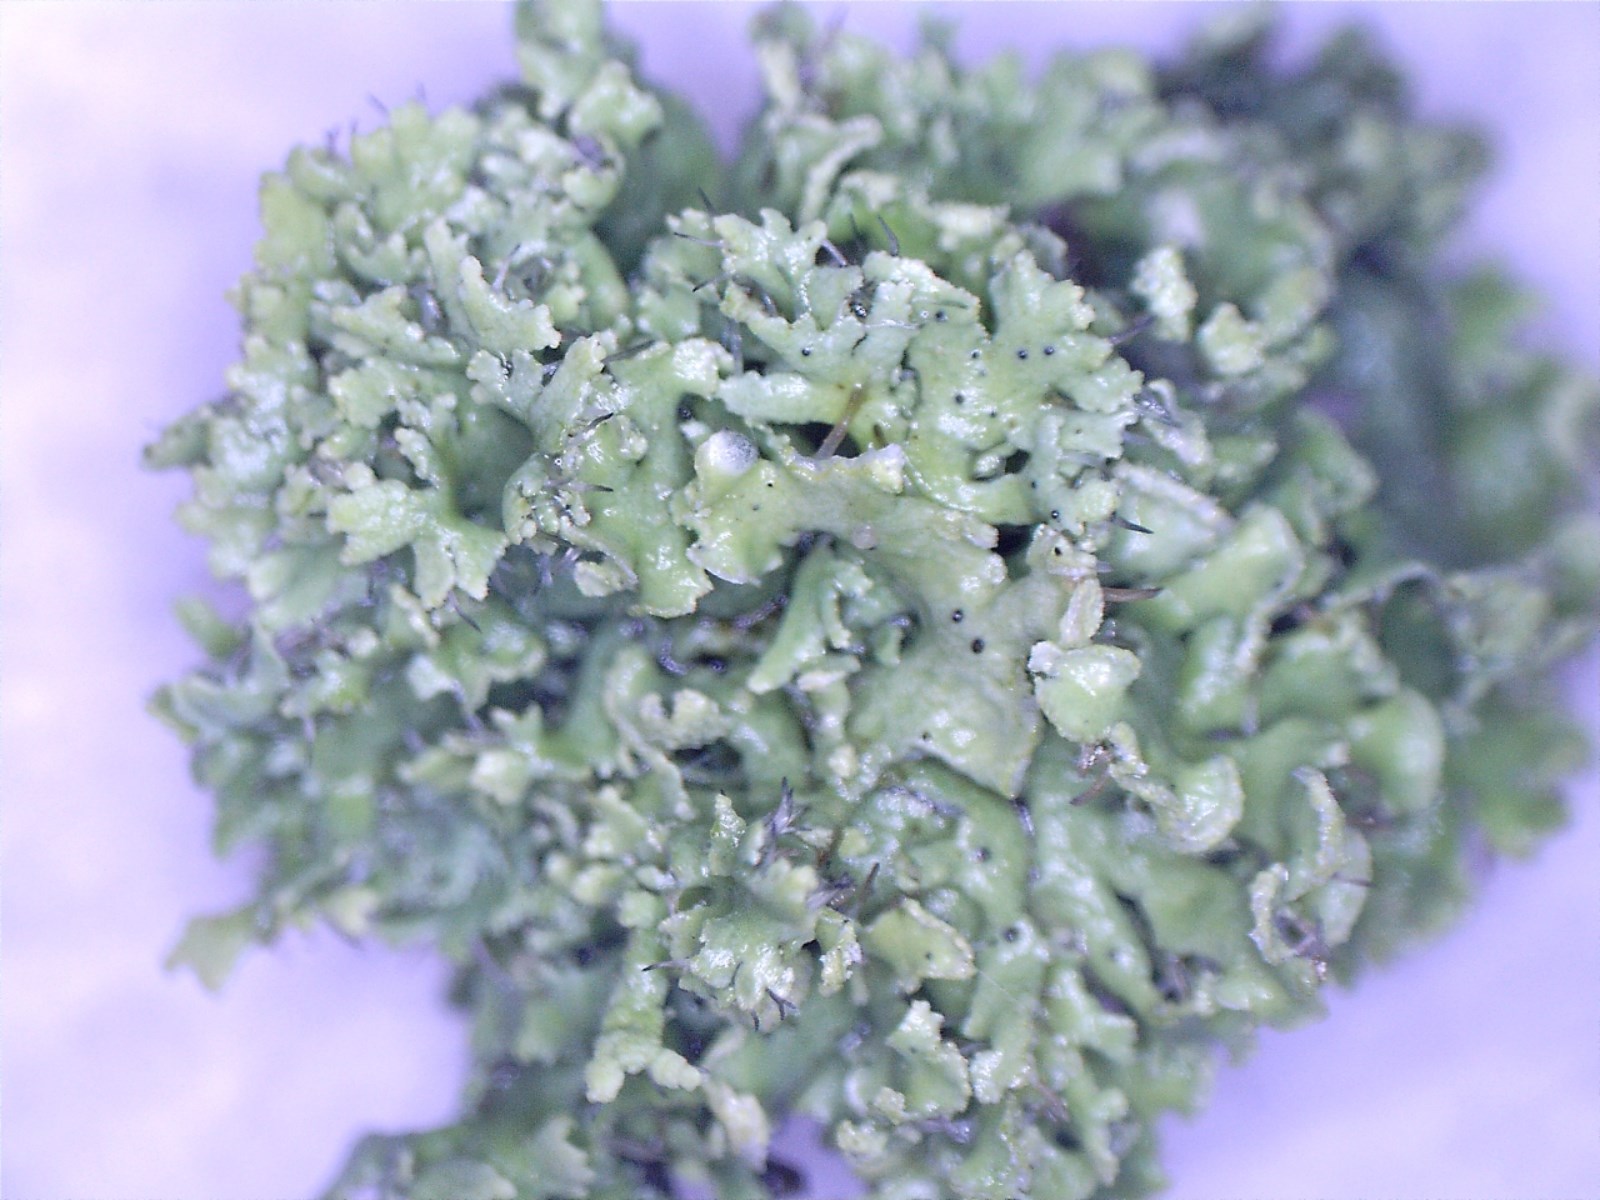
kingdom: Fungi
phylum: Ascomycota
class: Lecanoromycetes
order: Caliciales
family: Physciaceae
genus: Physcia
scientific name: Physcia tenella
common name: spæd rosetlav
